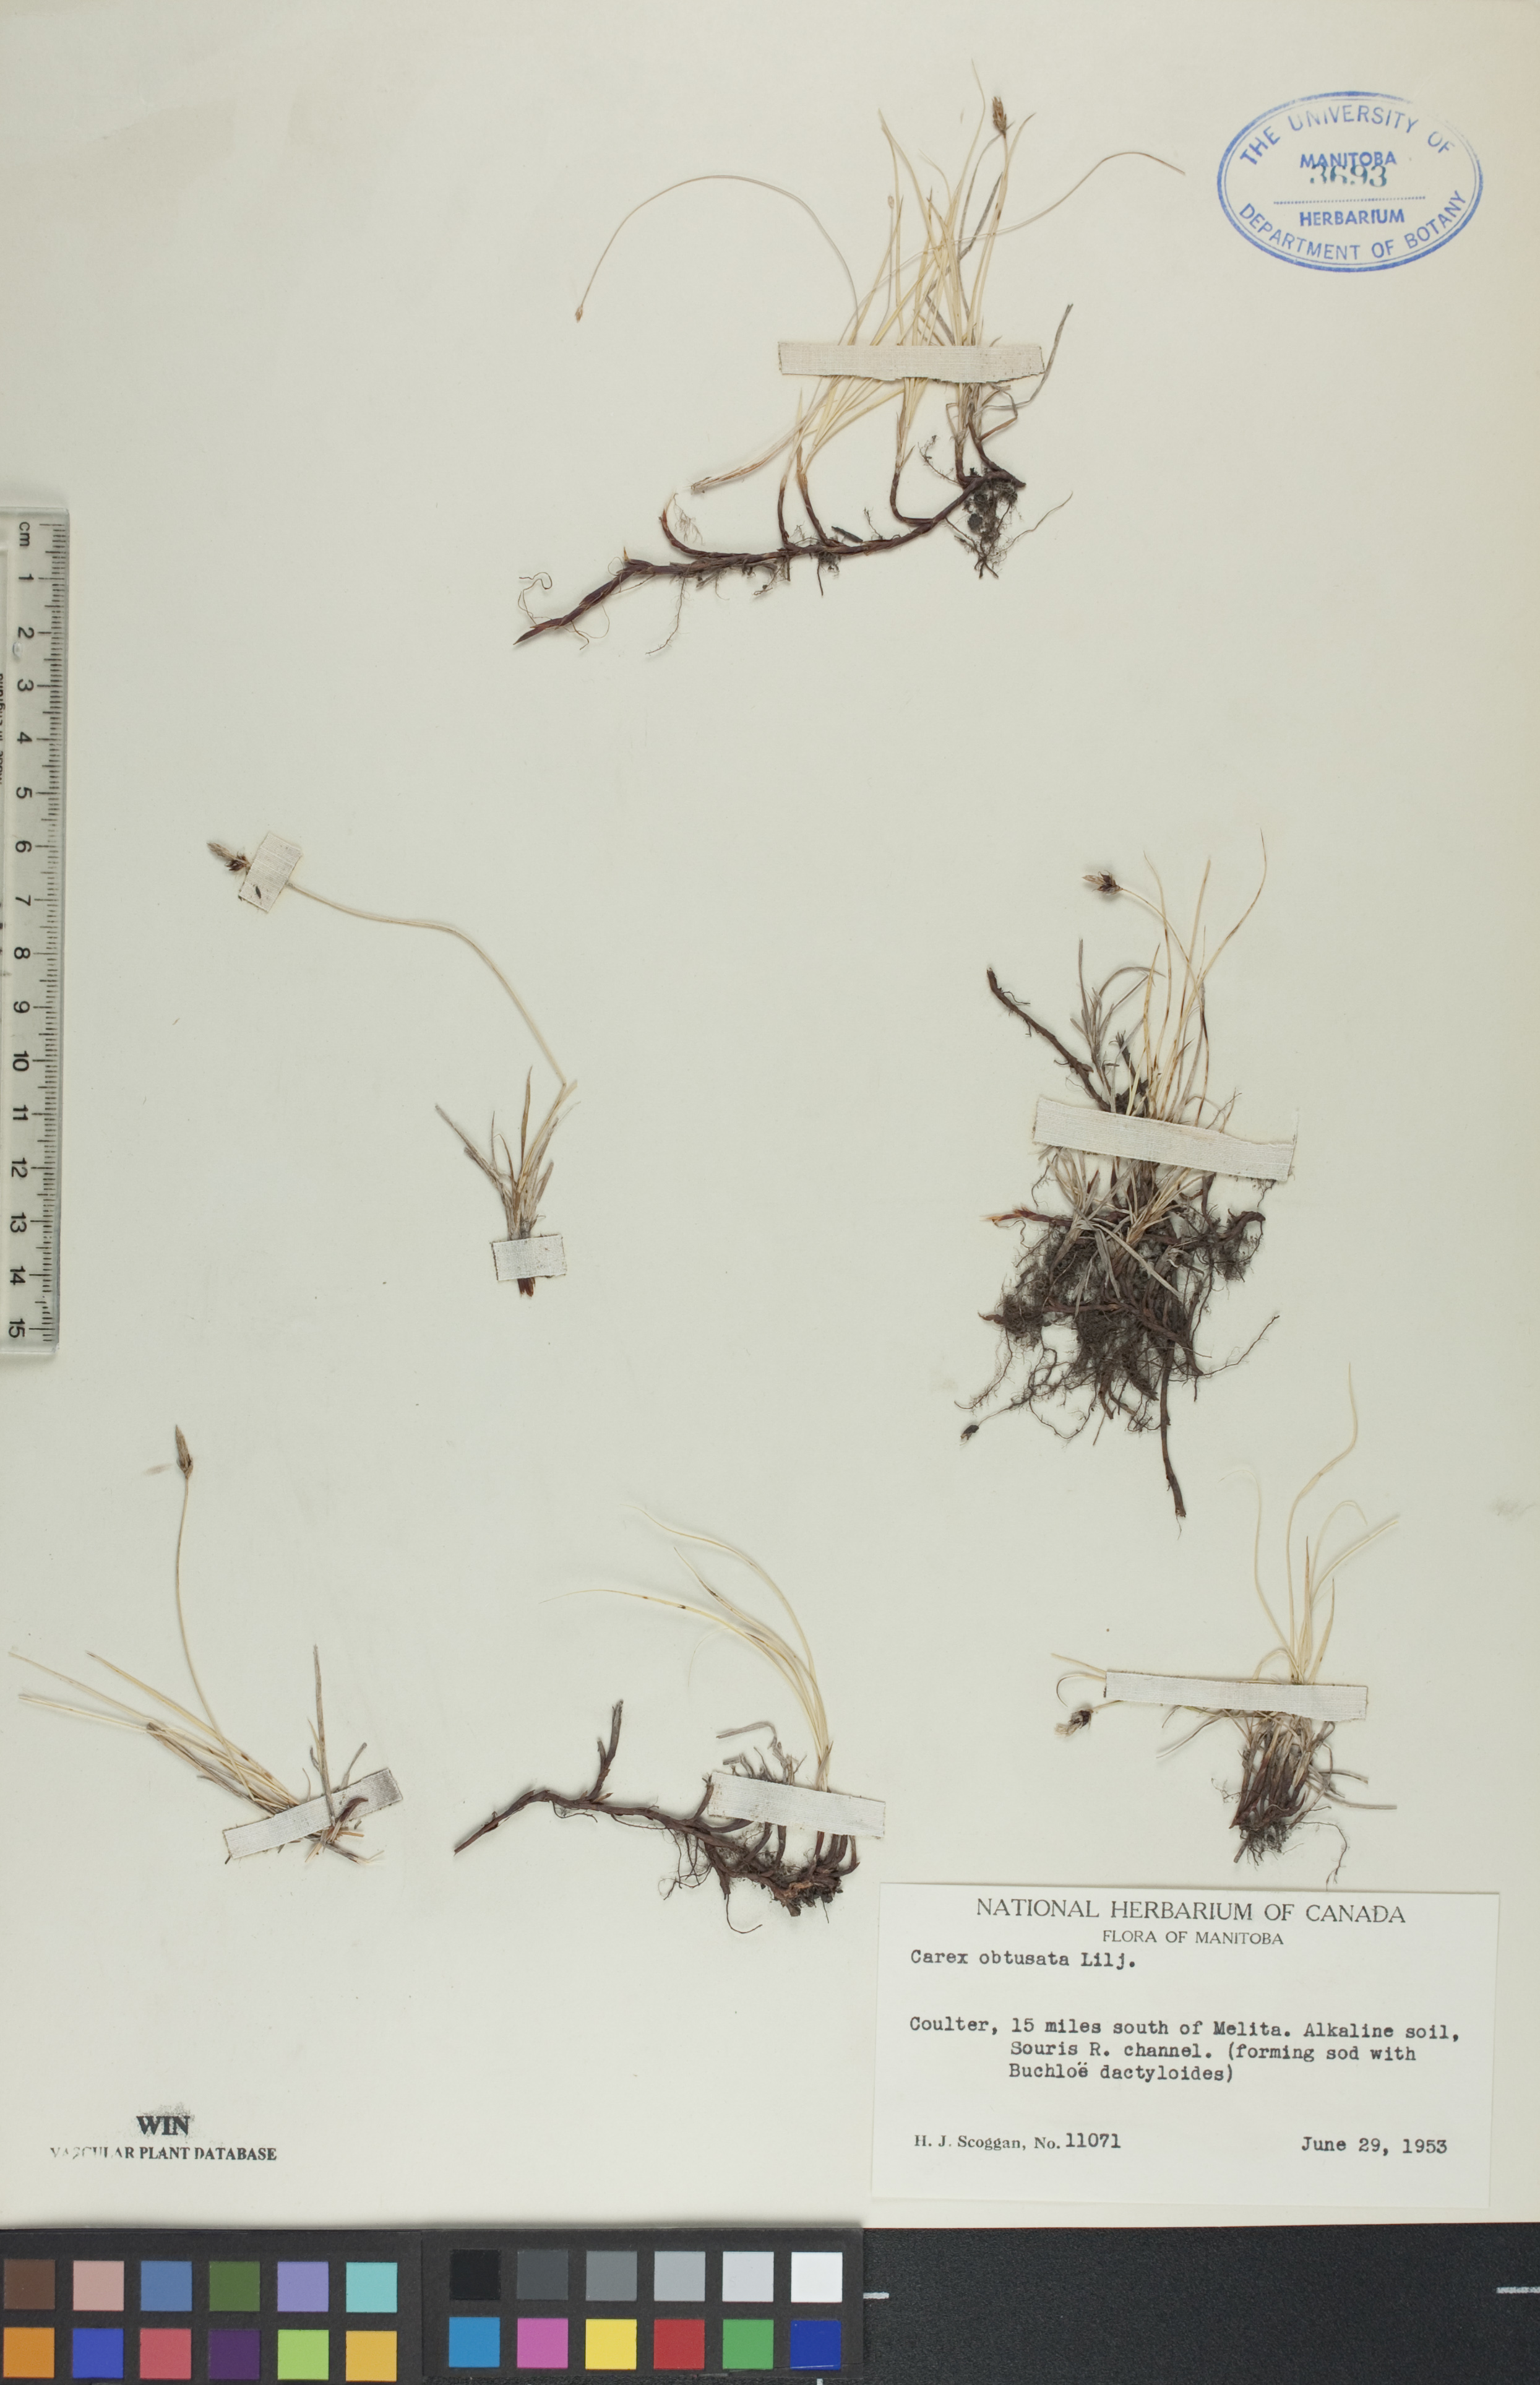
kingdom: Plantae
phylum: Tracheophyta
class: Liliopsida
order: Poales
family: Cyperaceae
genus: Carex
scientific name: Carex obtusata
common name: Blunt sedge
